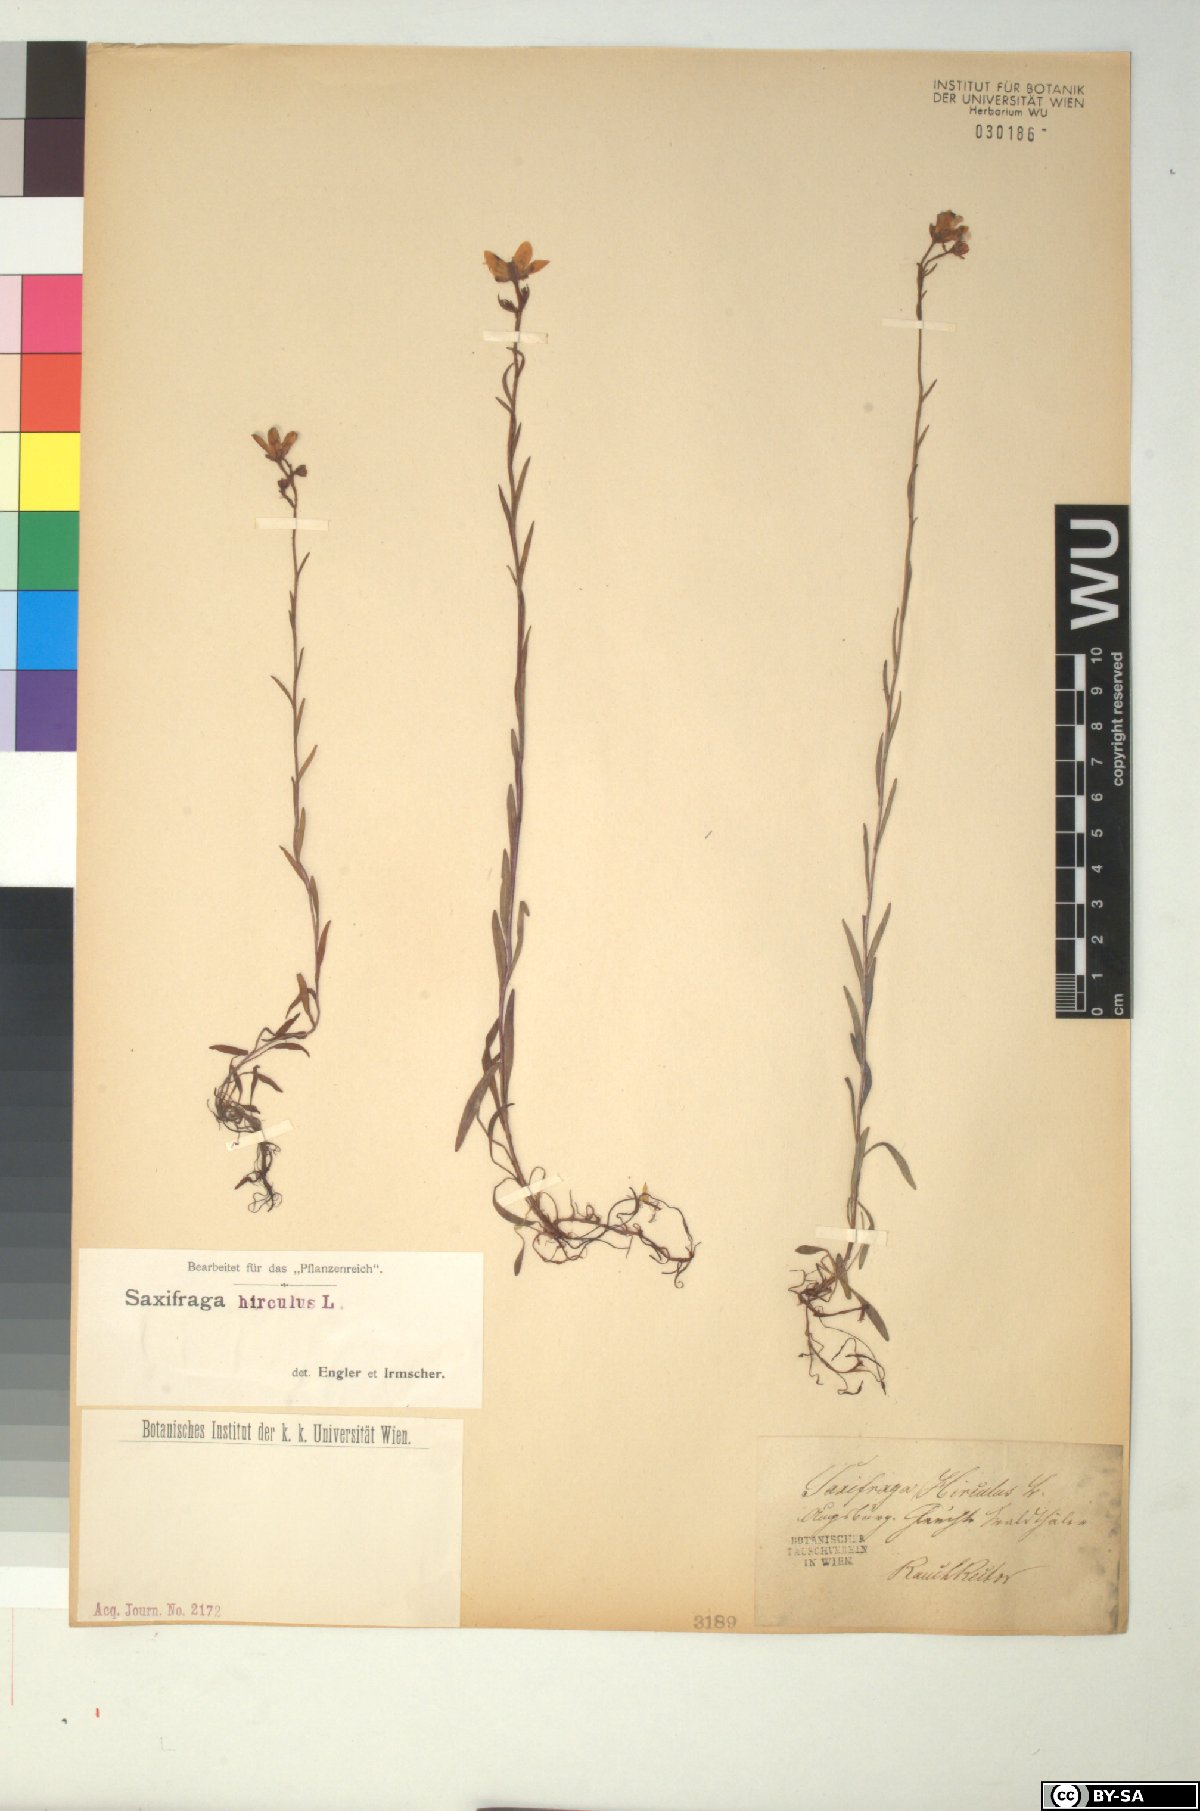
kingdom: Plantae
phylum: Tracheophyta
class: Magnoliopsida
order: Saxifragales
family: Saxifragaceae
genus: Saxifraga
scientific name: Saxifraga hirculus
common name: Yellow marsh saxifrage
